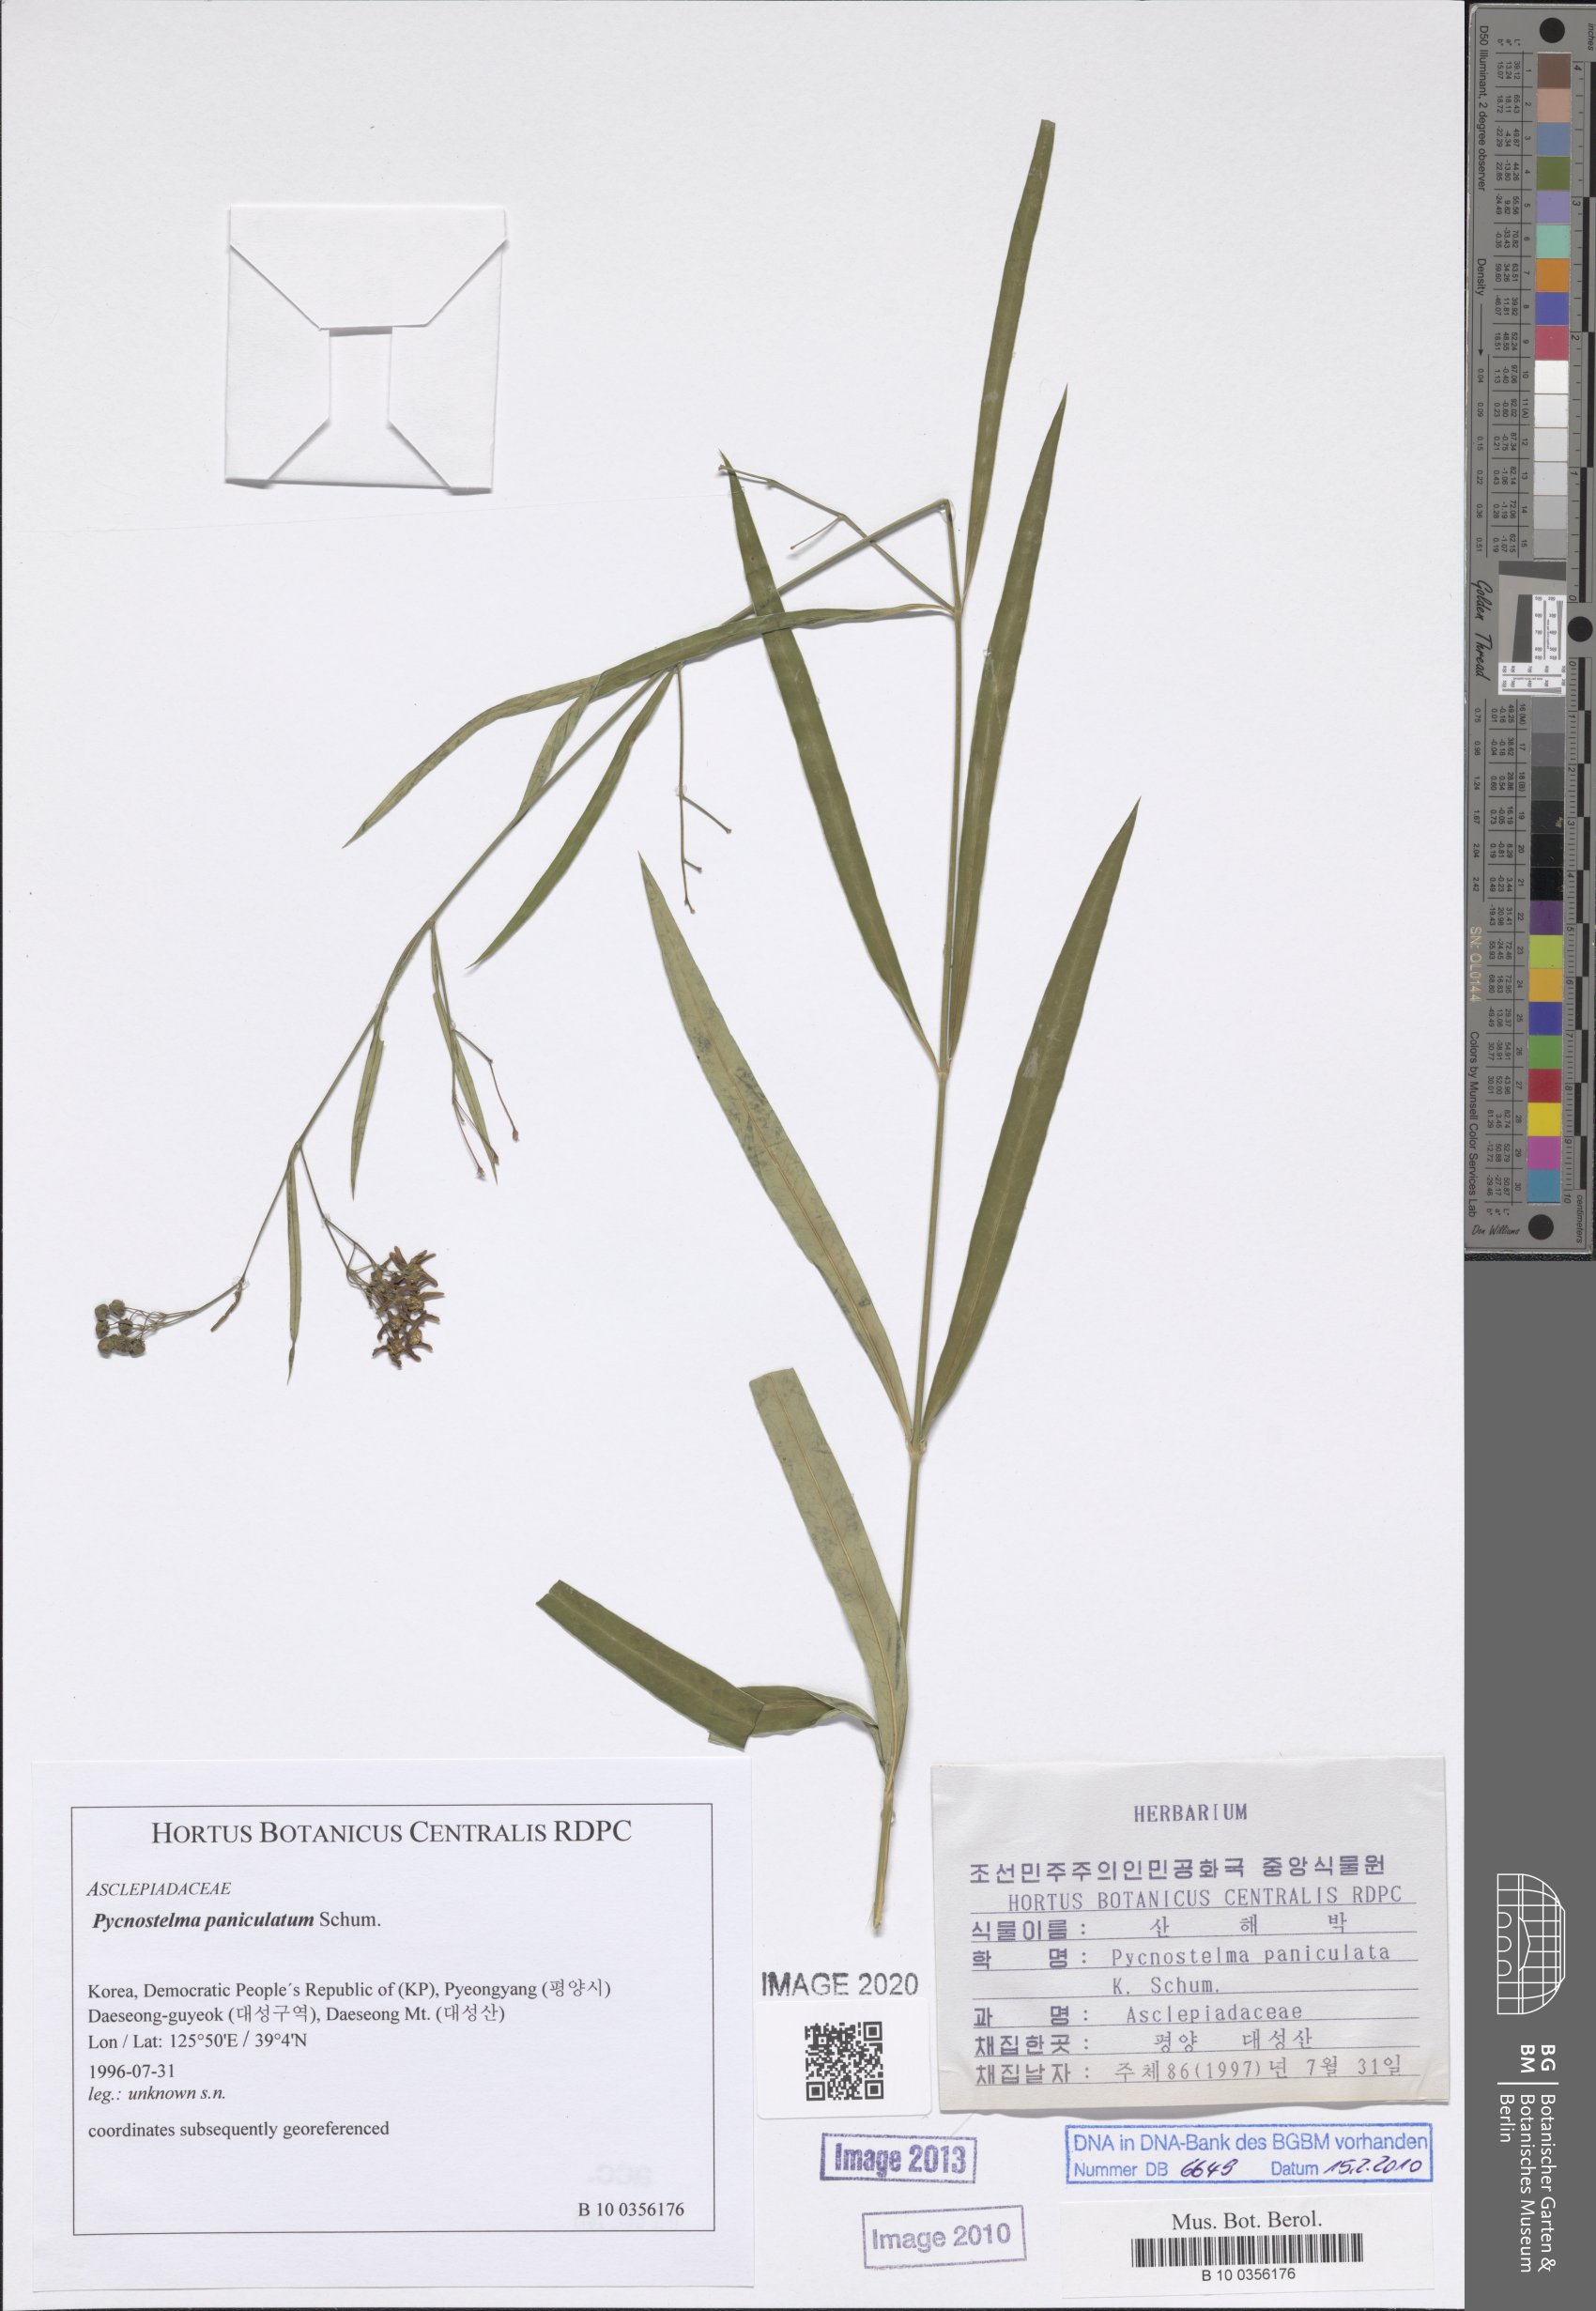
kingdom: Plantae
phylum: Tracheophyta
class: Magnoliopsida
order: Gentianales
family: Apocynaceae
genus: Vincetoxicum
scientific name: Vincetoxicum mukdenense
